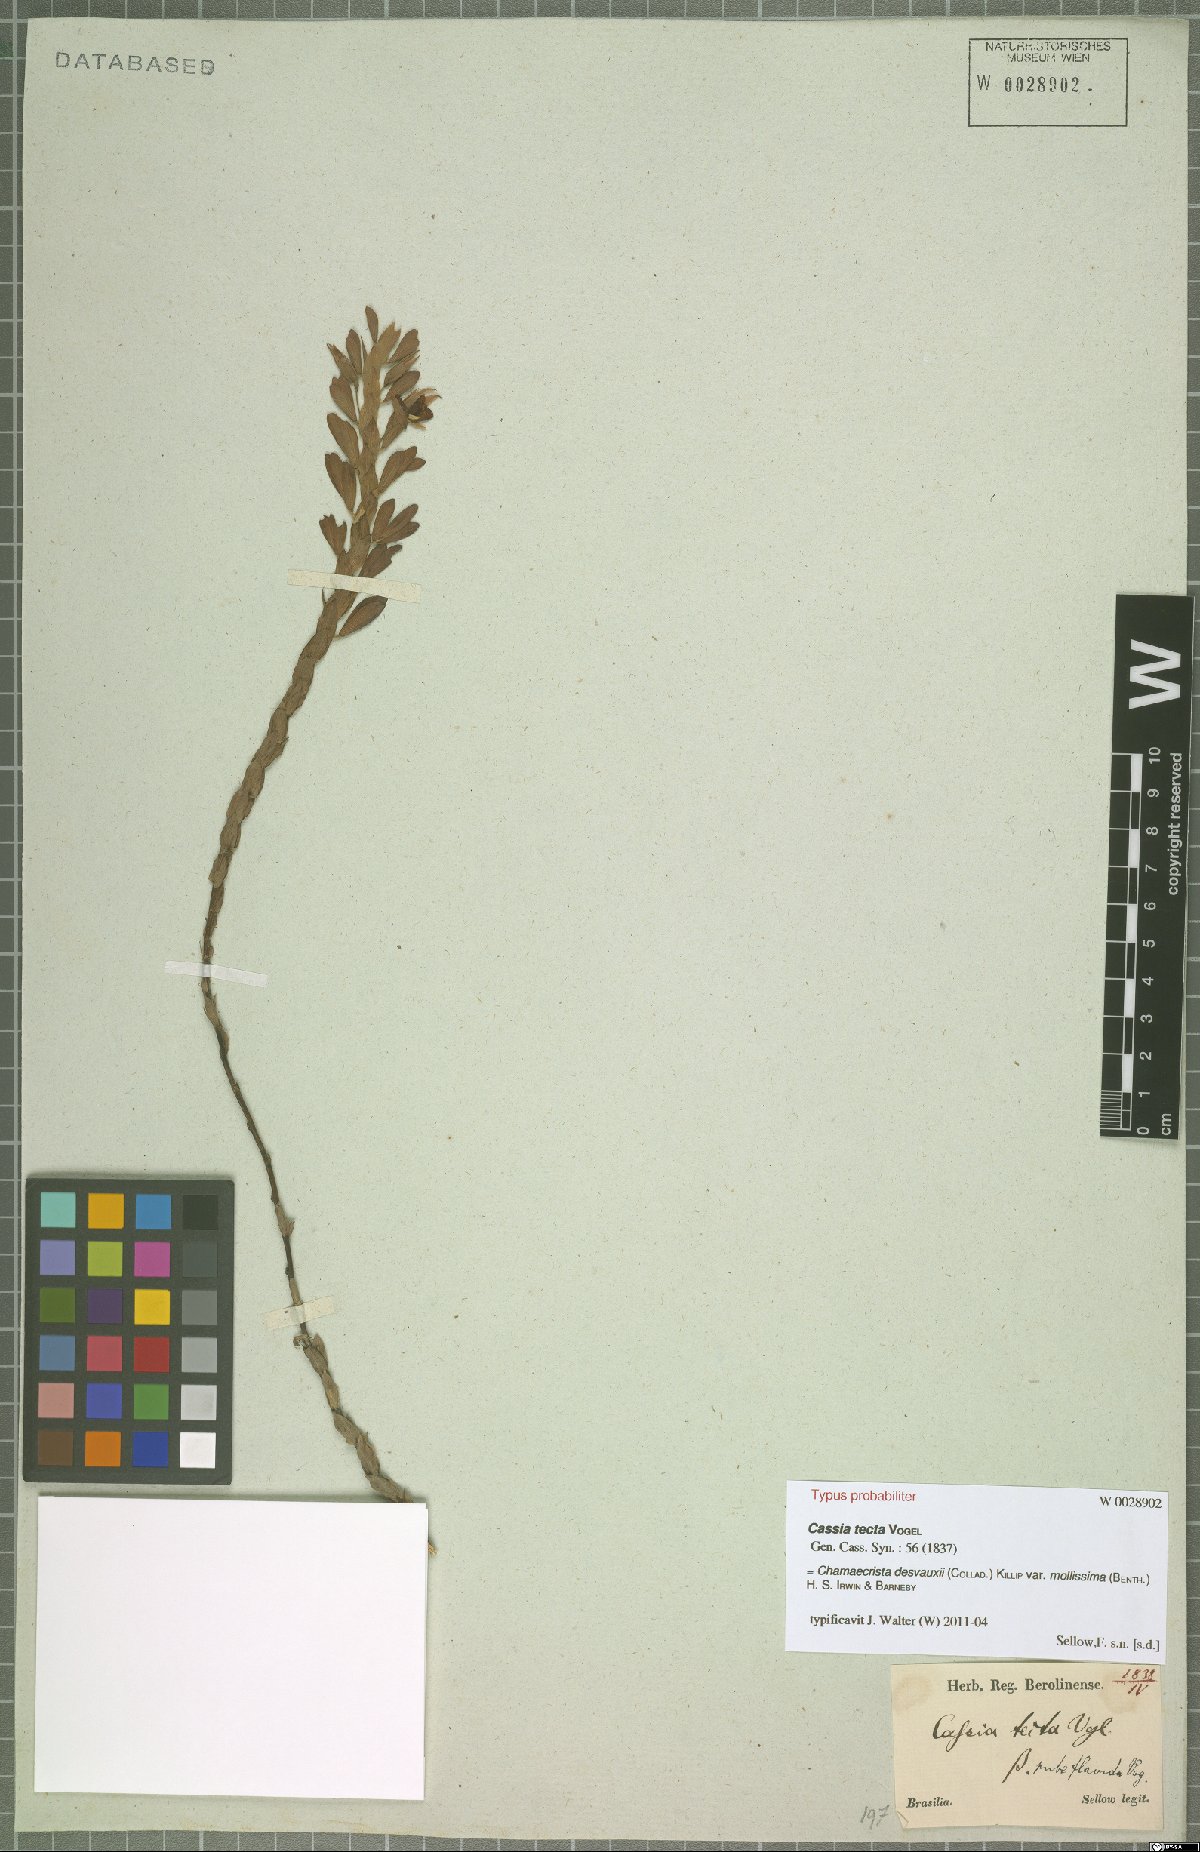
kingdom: Plantae
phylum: Tracheophyta
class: Magnoliopsida
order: Fabales
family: Fabaceae
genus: Chamaecrista
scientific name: Chamaecrista desvauxii
